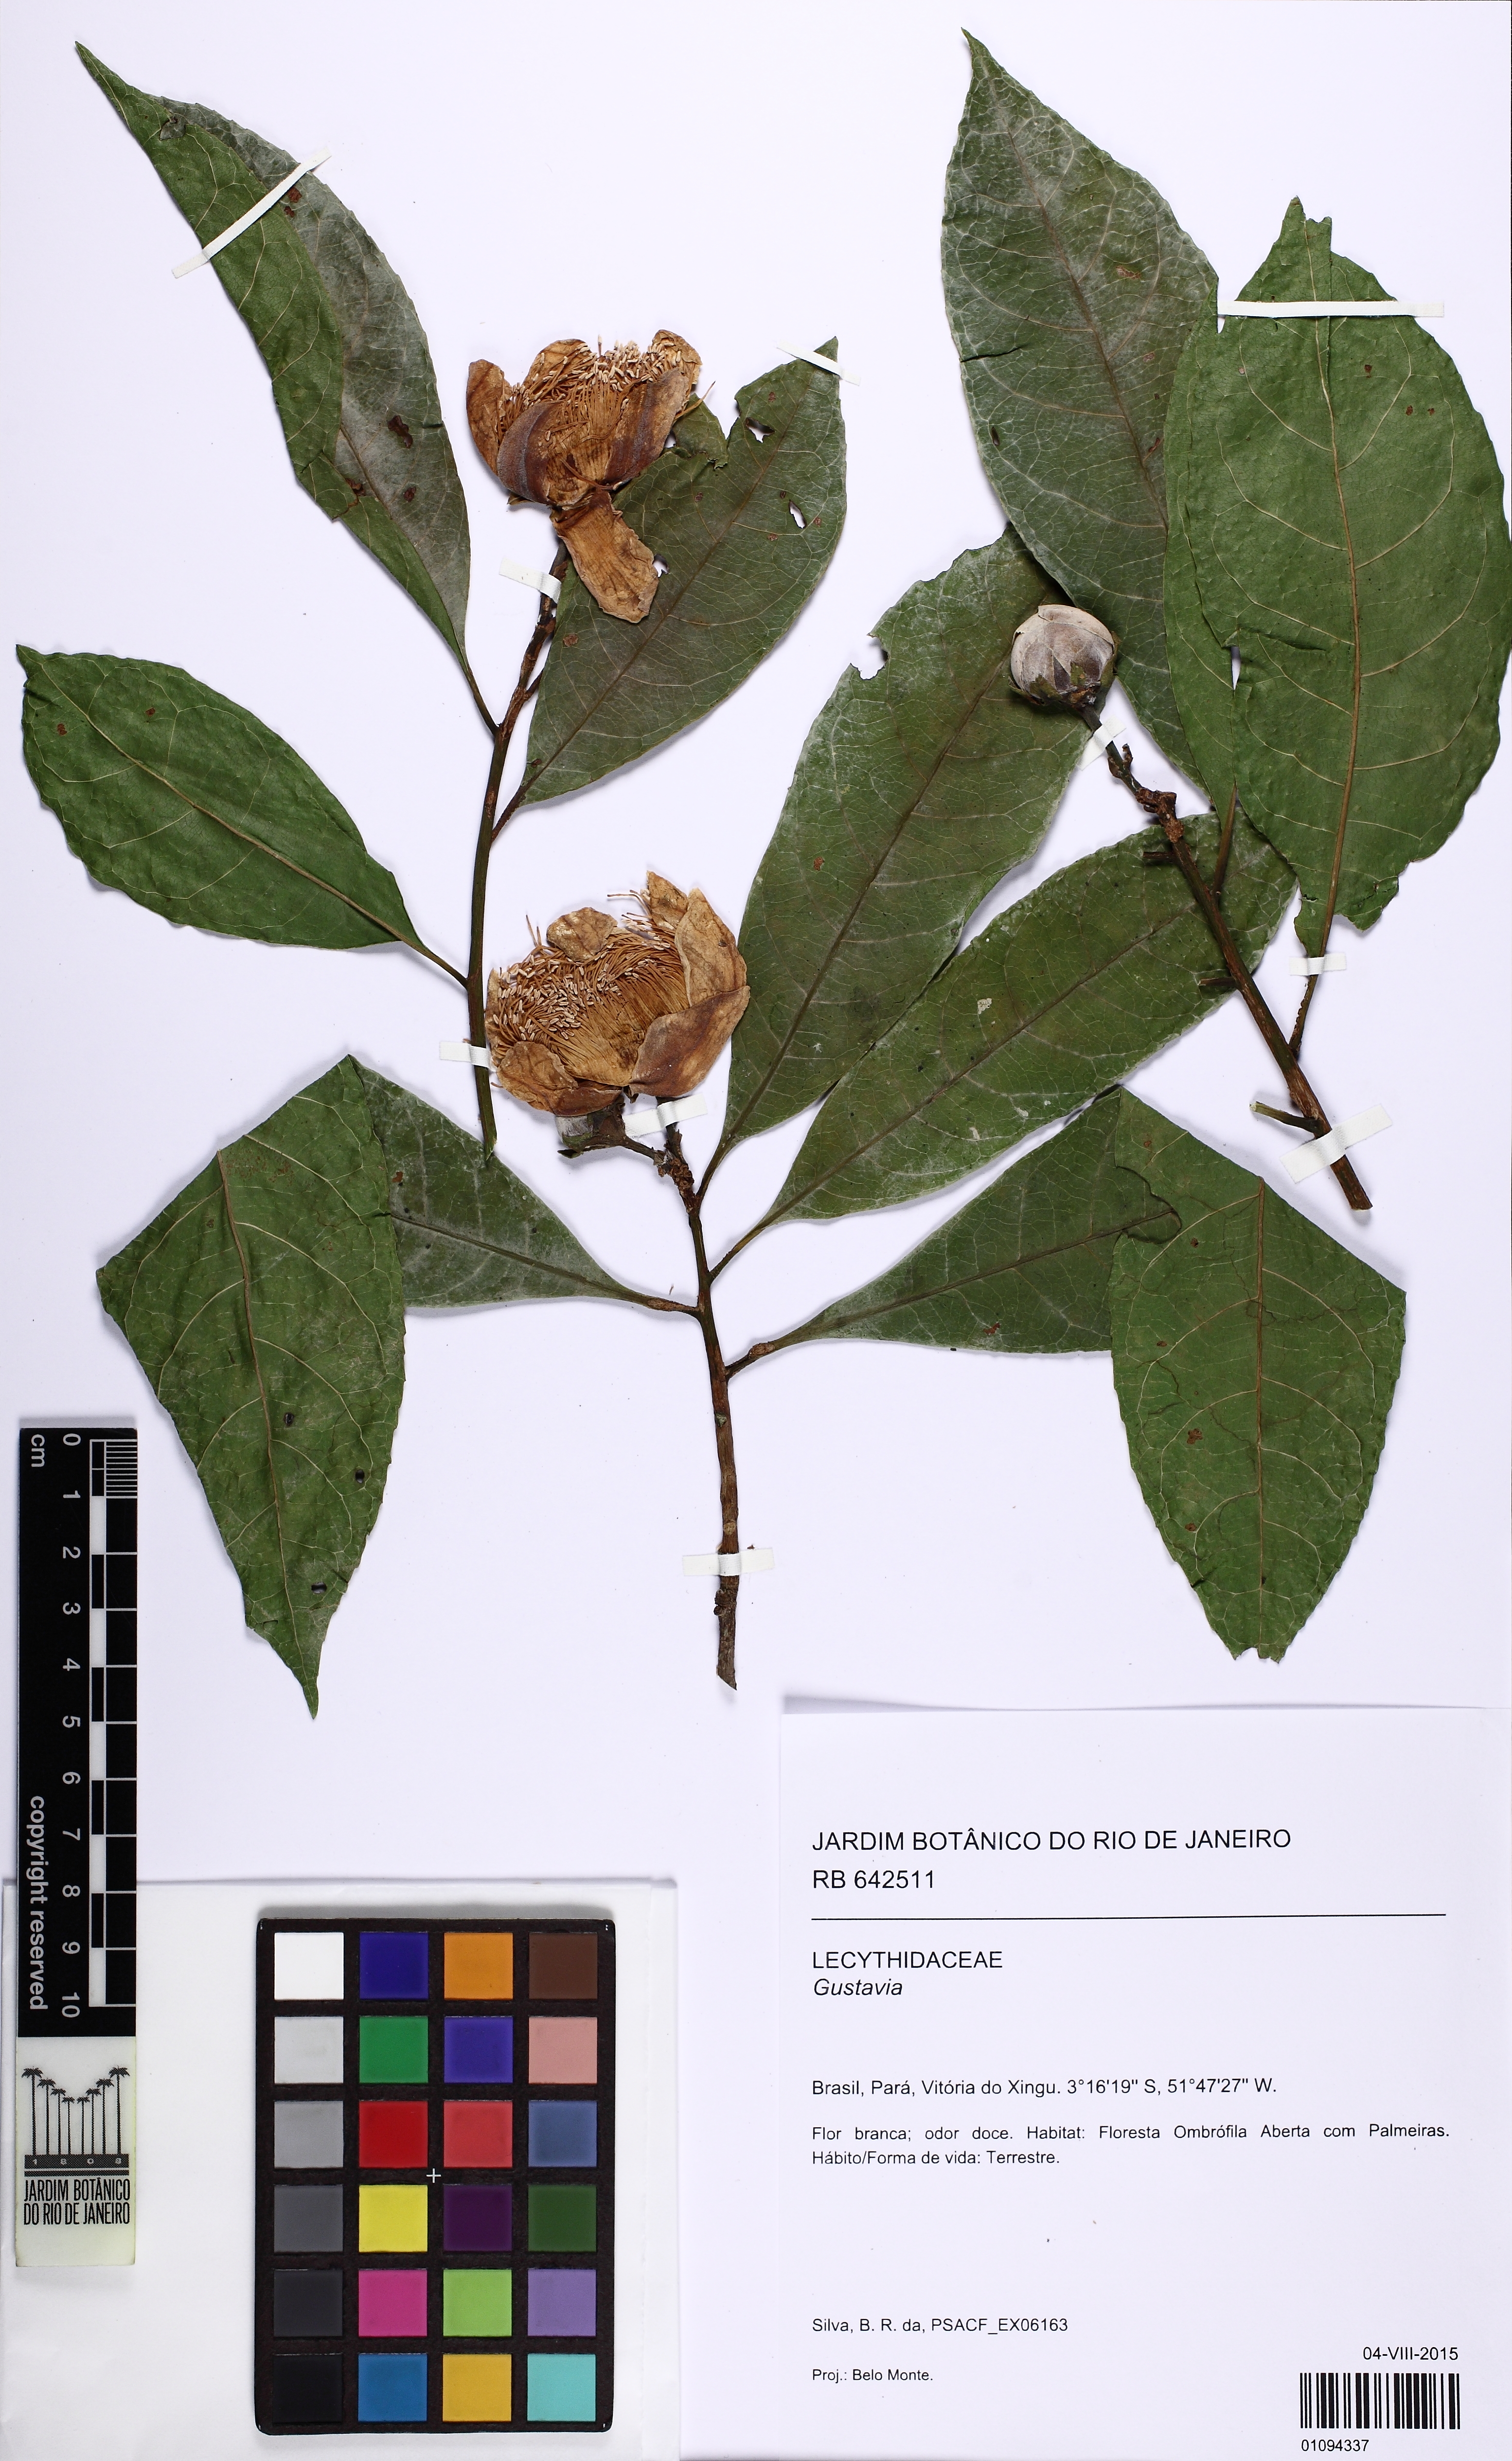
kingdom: Plantae
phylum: Tracheophyta
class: Magnoliopsida
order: Ericales
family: Lecythidaceae
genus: Gustavia
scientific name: Gustavia hexapetala
